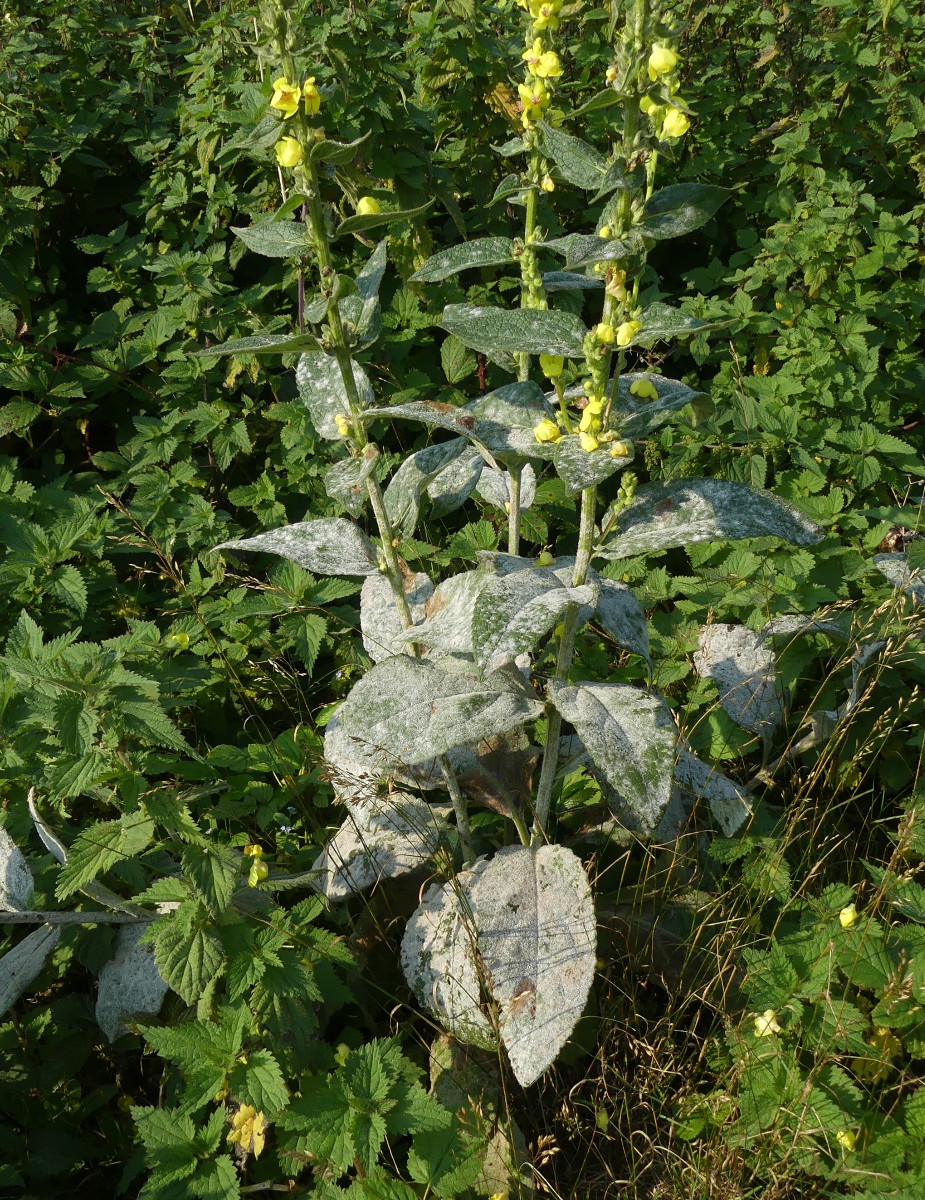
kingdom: Fungi
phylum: Ascomycota
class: Leotiomycetes
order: Helotiales
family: Erysiphaceae
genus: Golovinomyces
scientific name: Golovinomyces verbasci
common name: kongelys-meldug
